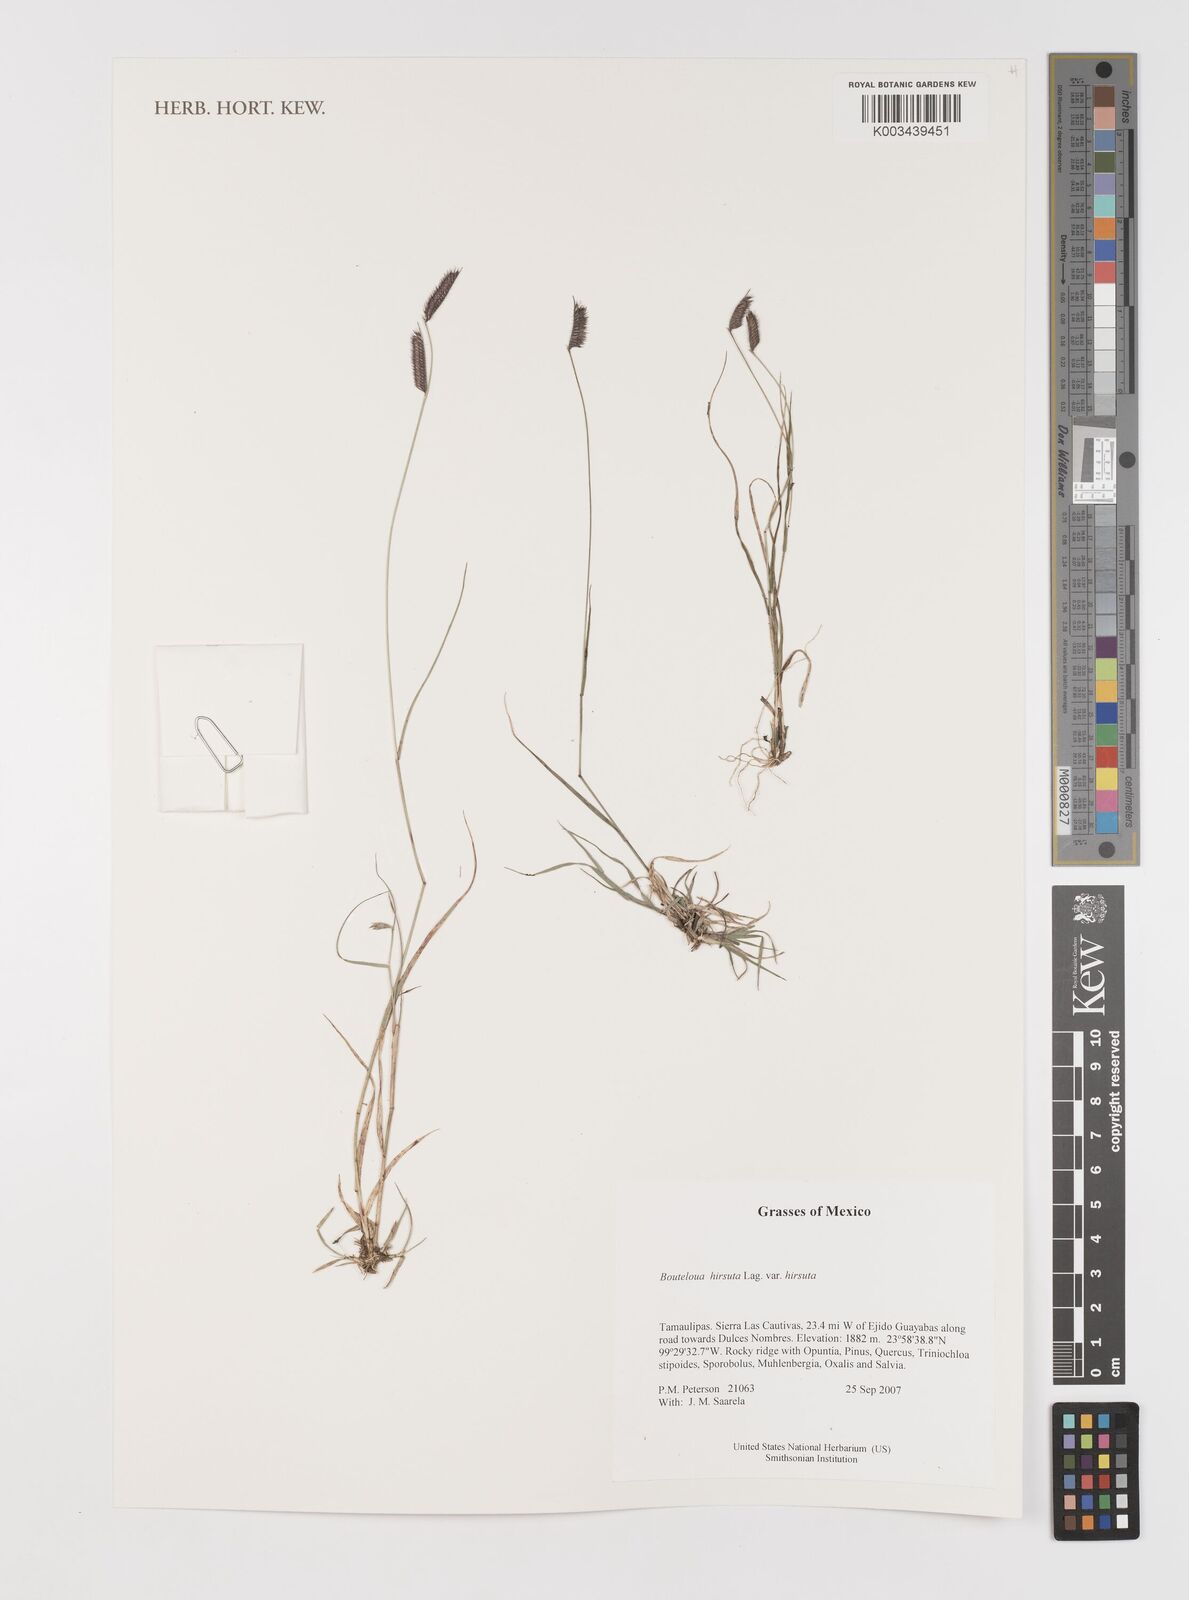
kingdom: Plantae
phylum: Tracheophyta
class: Liliopsida
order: Poales
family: Poaceae
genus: Bouteloua
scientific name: Bouteloua hirsuta
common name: Hairy grama
